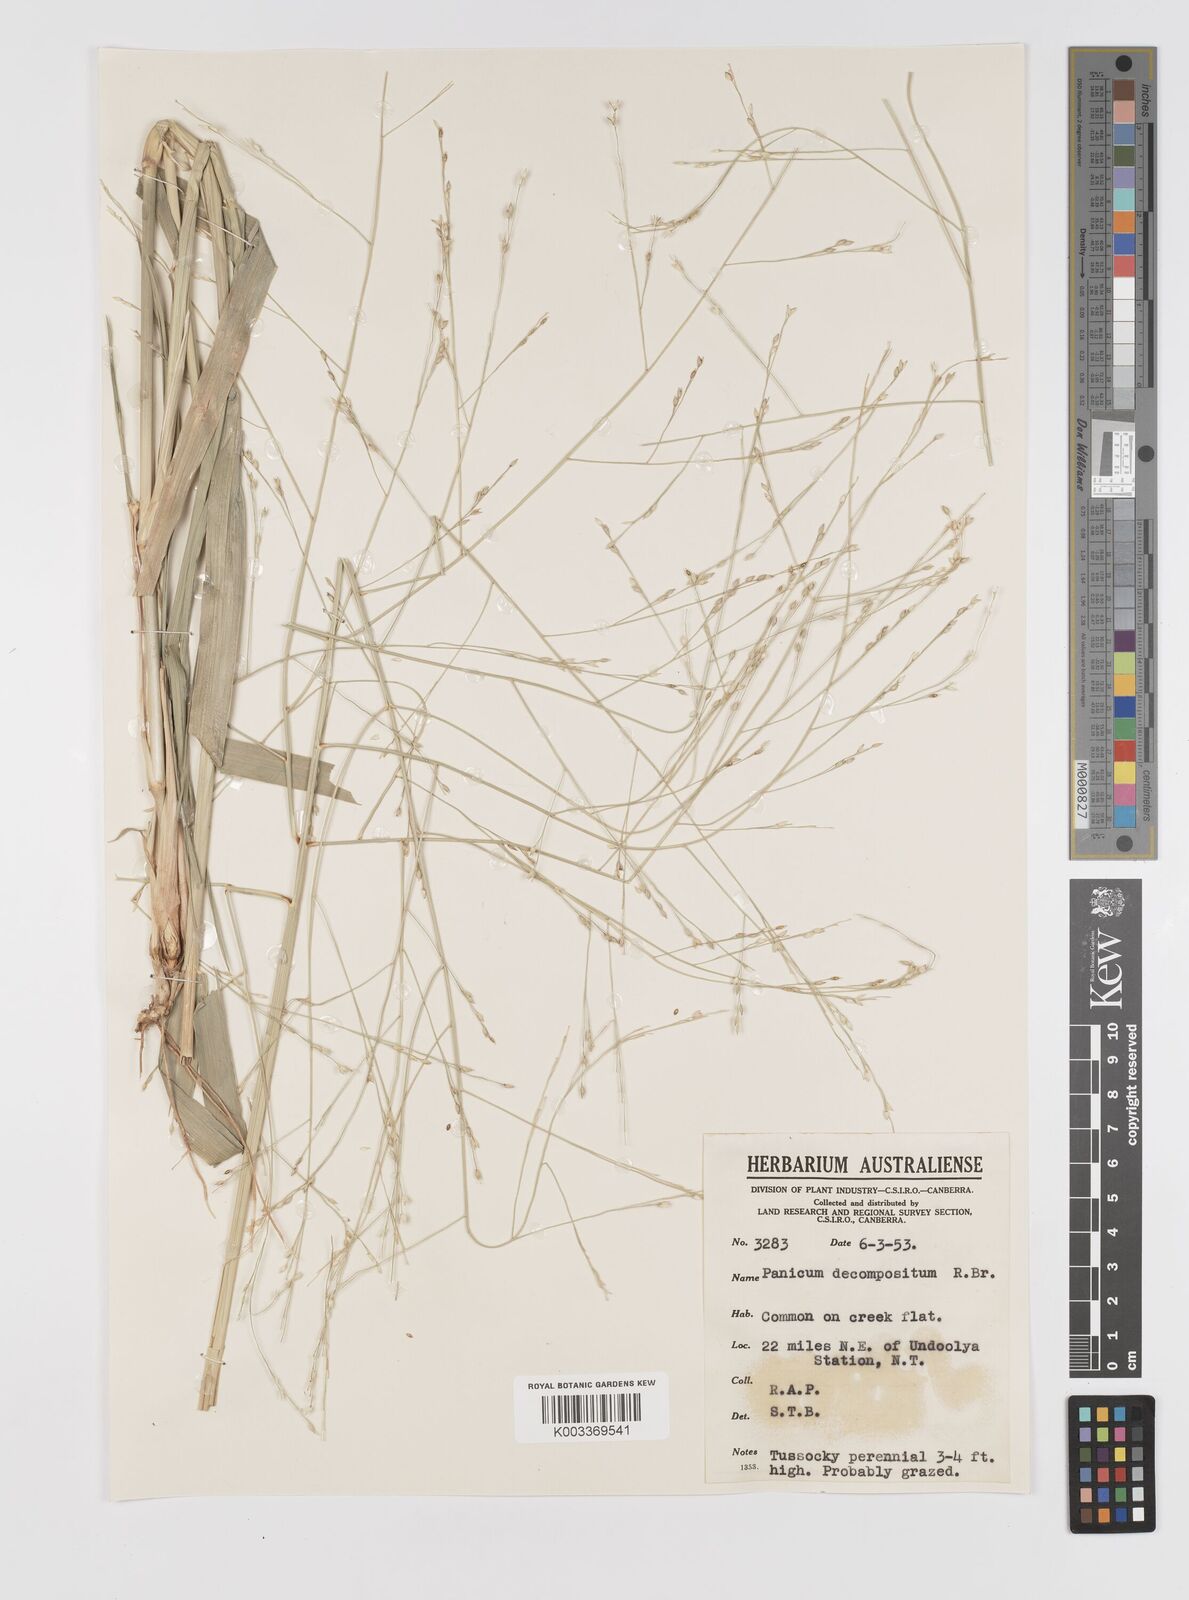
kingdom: Plantae
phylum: Tracheophyta
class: Liliopsida
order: Poales
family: Poaceae
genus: Panicum
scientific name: Panicum decompositum
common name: Australian millet
